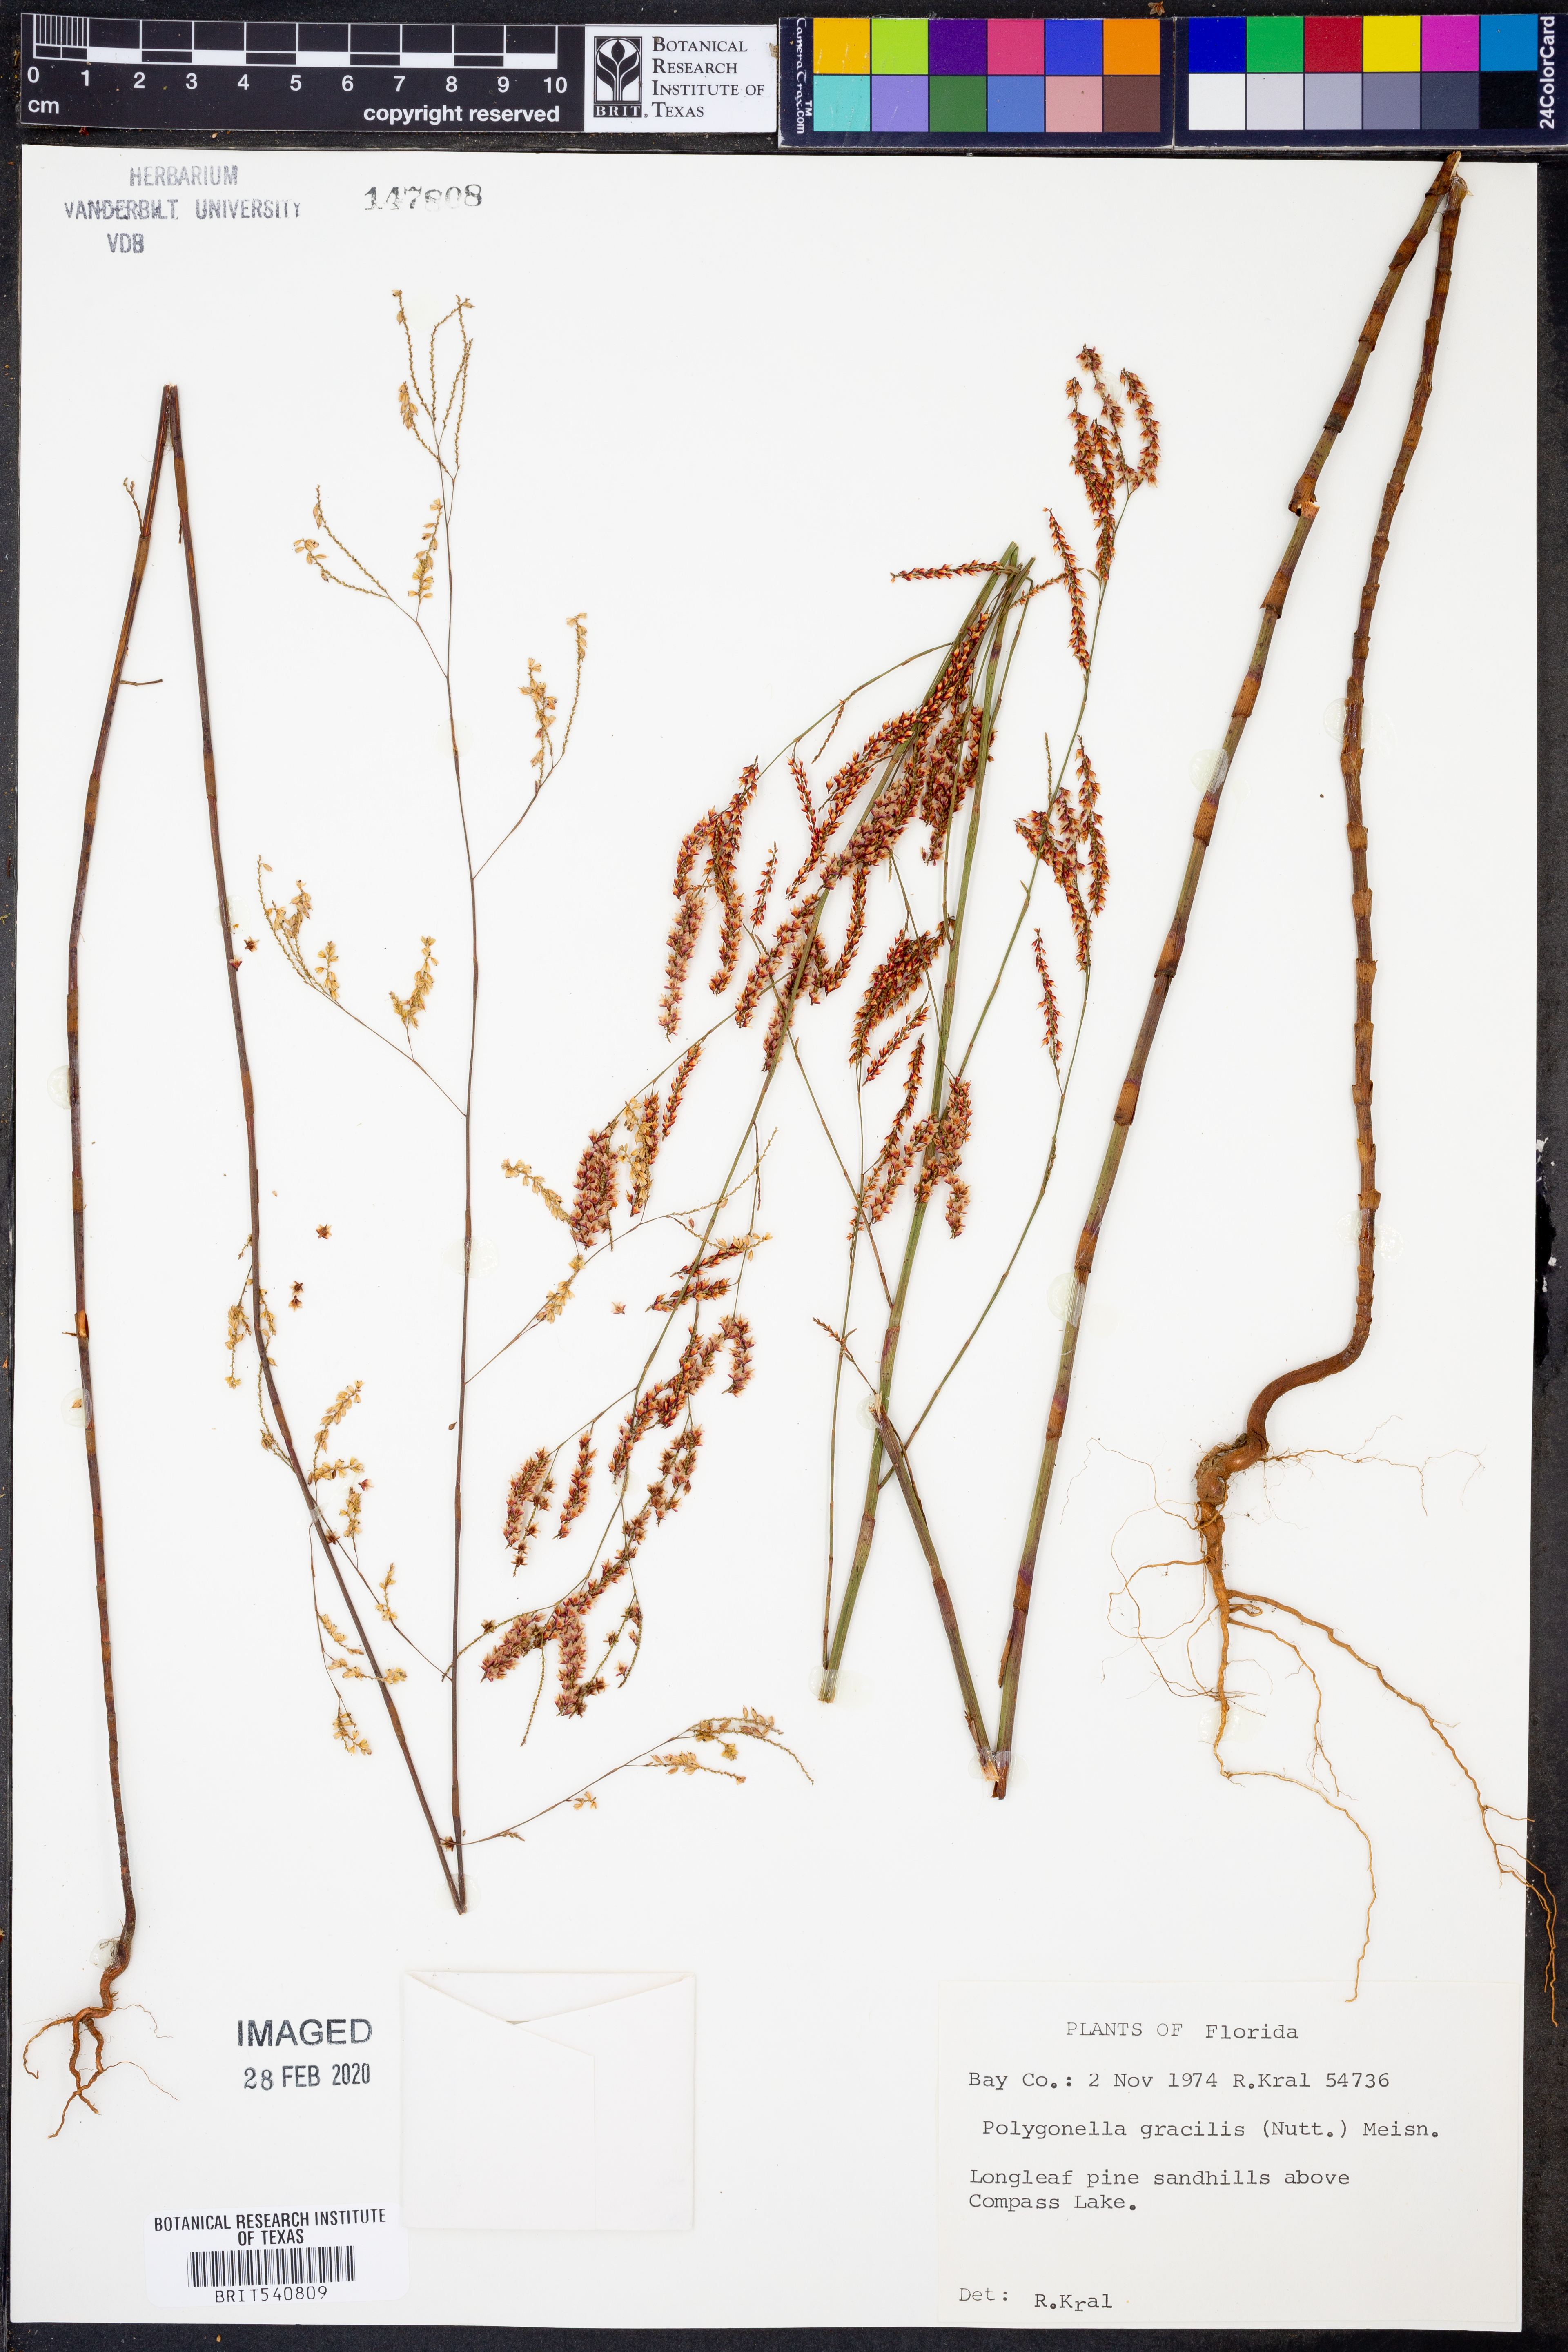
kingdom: Plantae
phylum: Tracheophyta
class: Magnoliopsida
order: Caryophyllales
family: Polygonaceae
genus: Polygonella
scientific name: Polygonella gracilis
